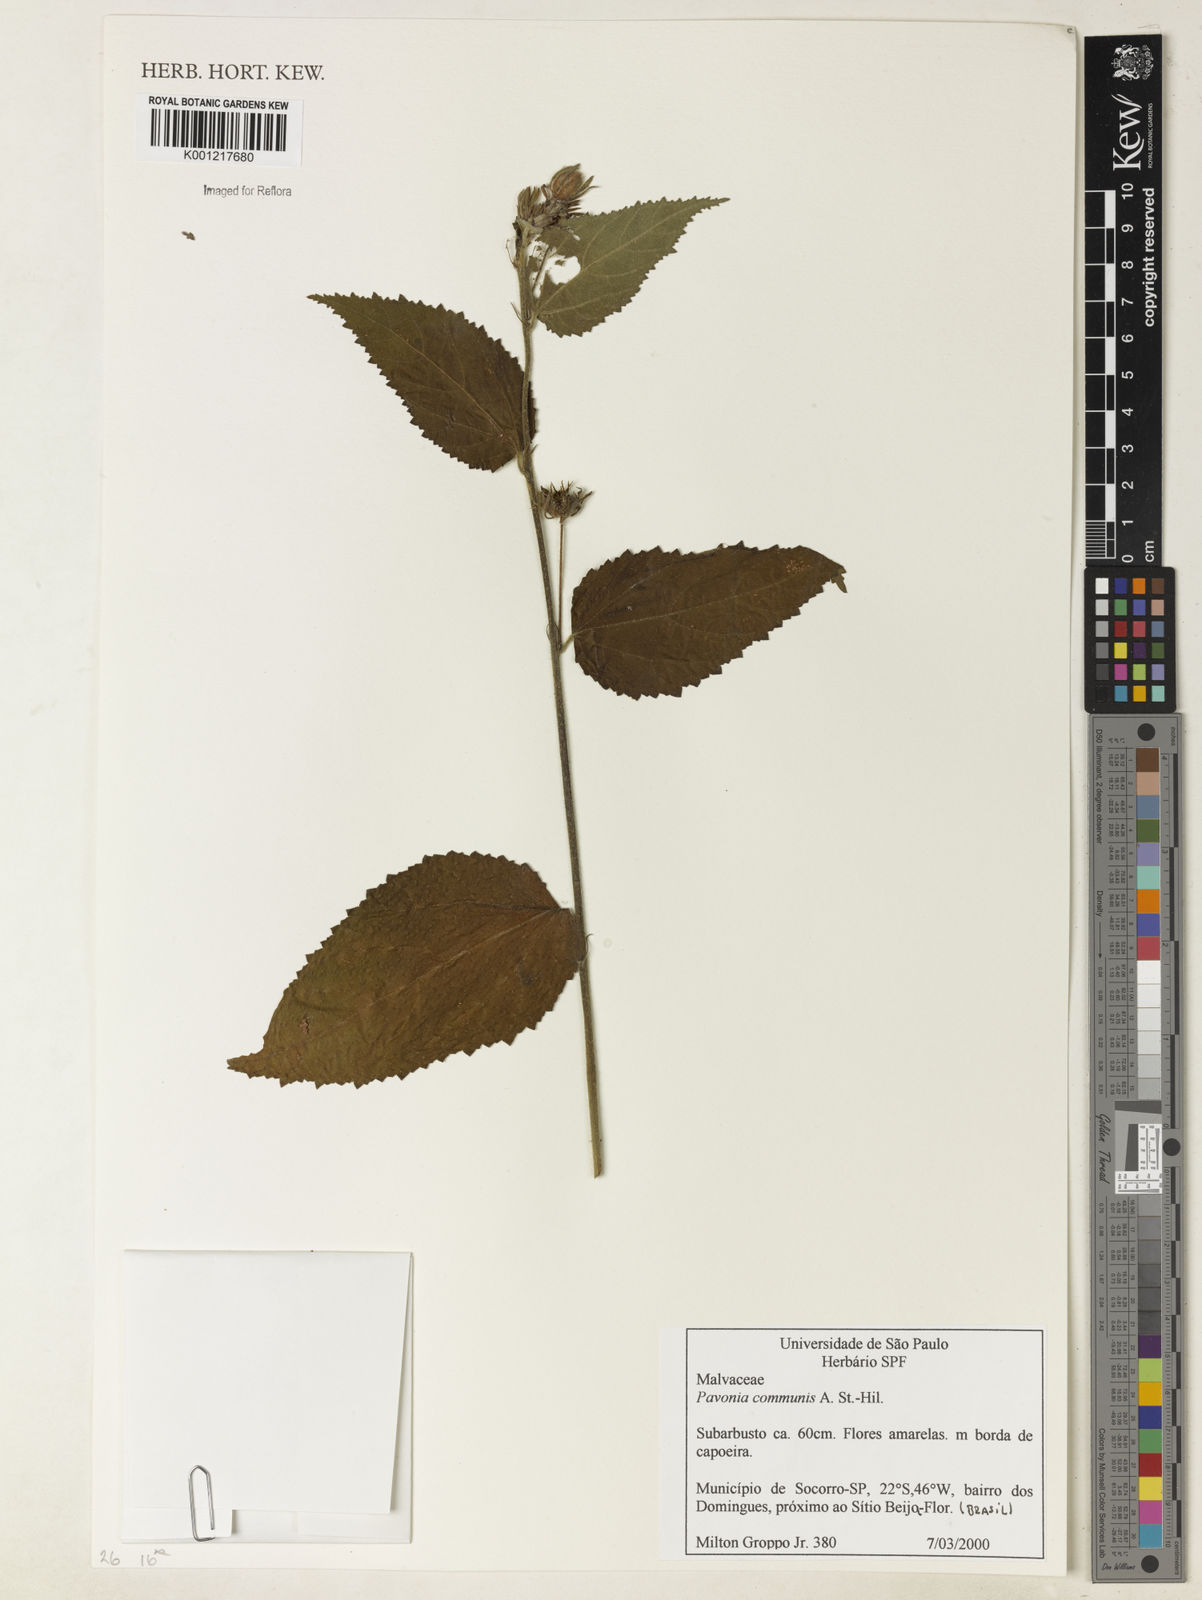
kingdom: Plantae
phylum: Tracheophyta
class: Magnoliopsida
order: Malvales
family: Malvaceae
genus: Pavonia
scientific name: Pavonia communis
